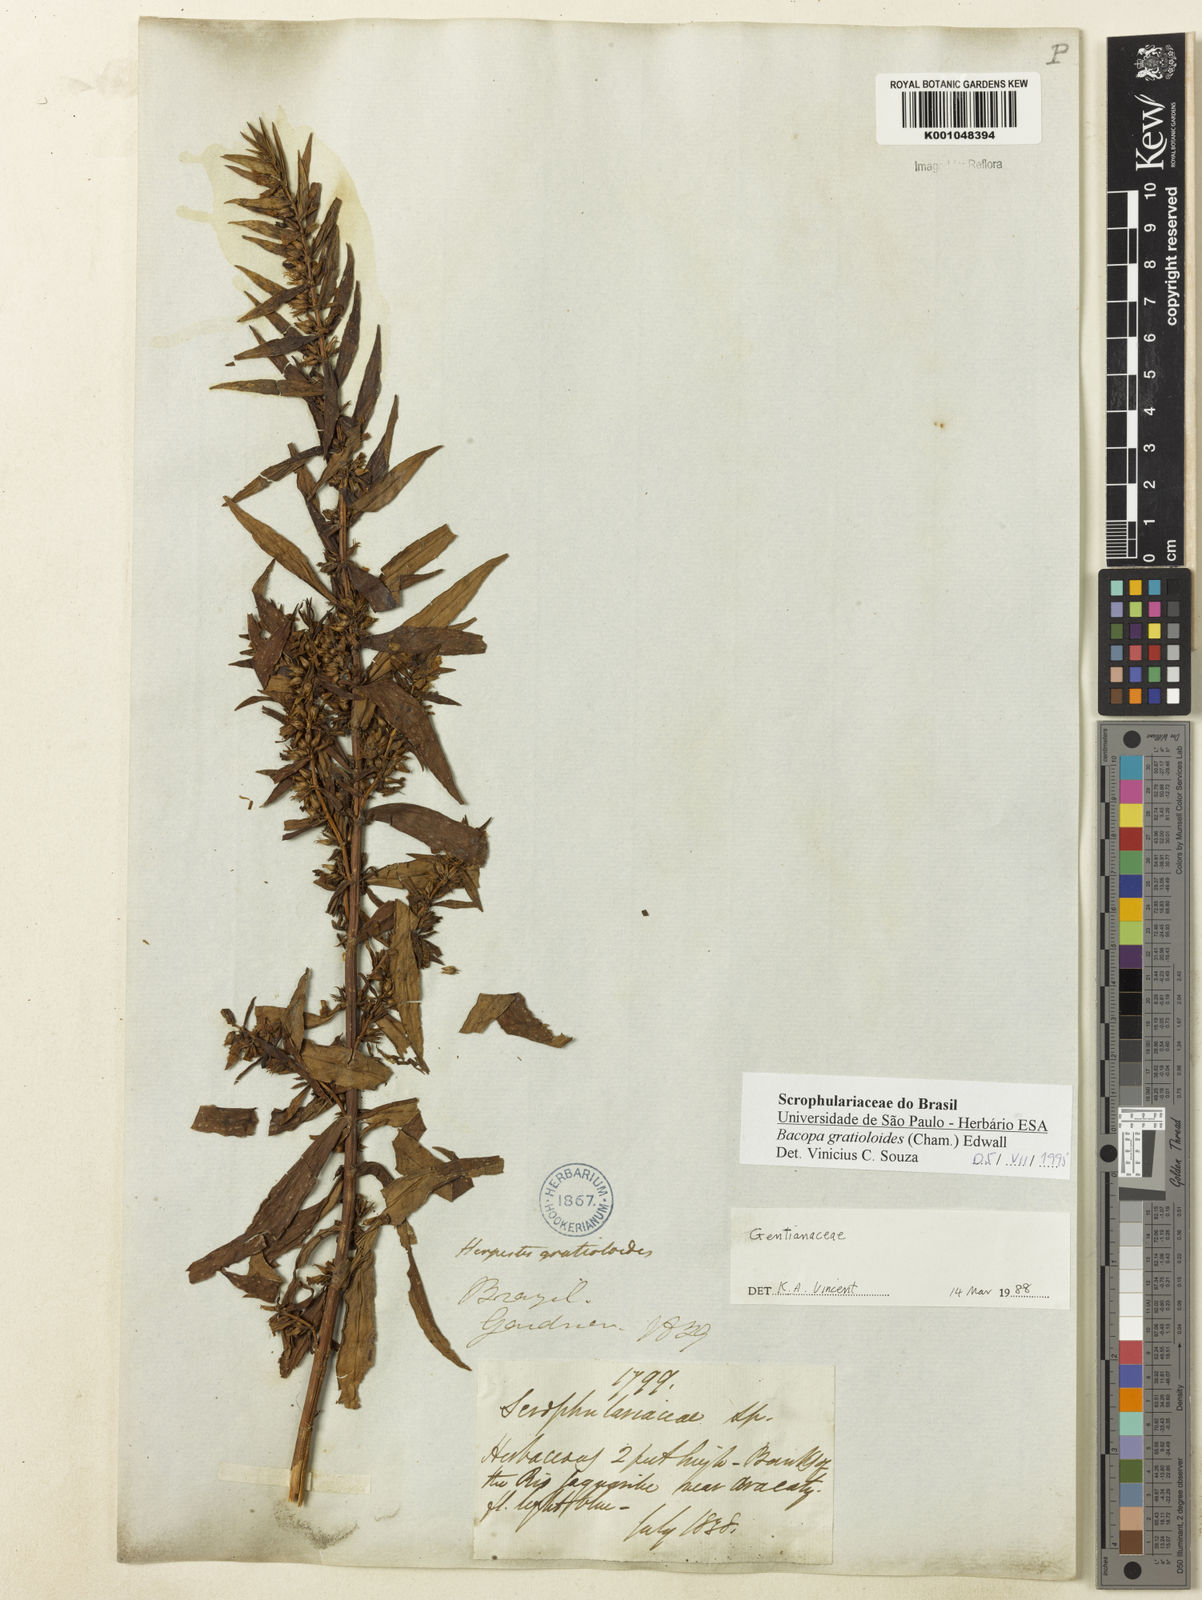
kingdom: Plantae
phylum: Tracheophyta
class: Magnoliopsida
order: Lamiales
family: Plantaginaceae
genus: Bacopa
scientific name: Bacopa
